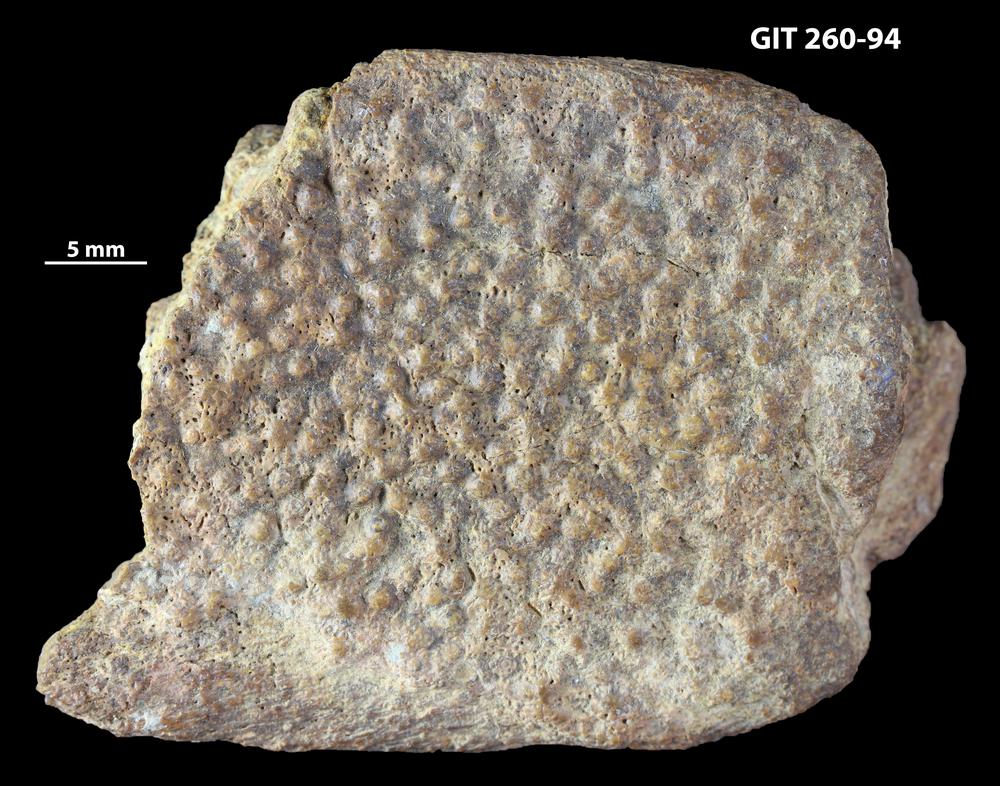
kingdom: Animalia
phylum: Chordata
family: Homostiidae
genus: Homostius
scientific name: Homostius
